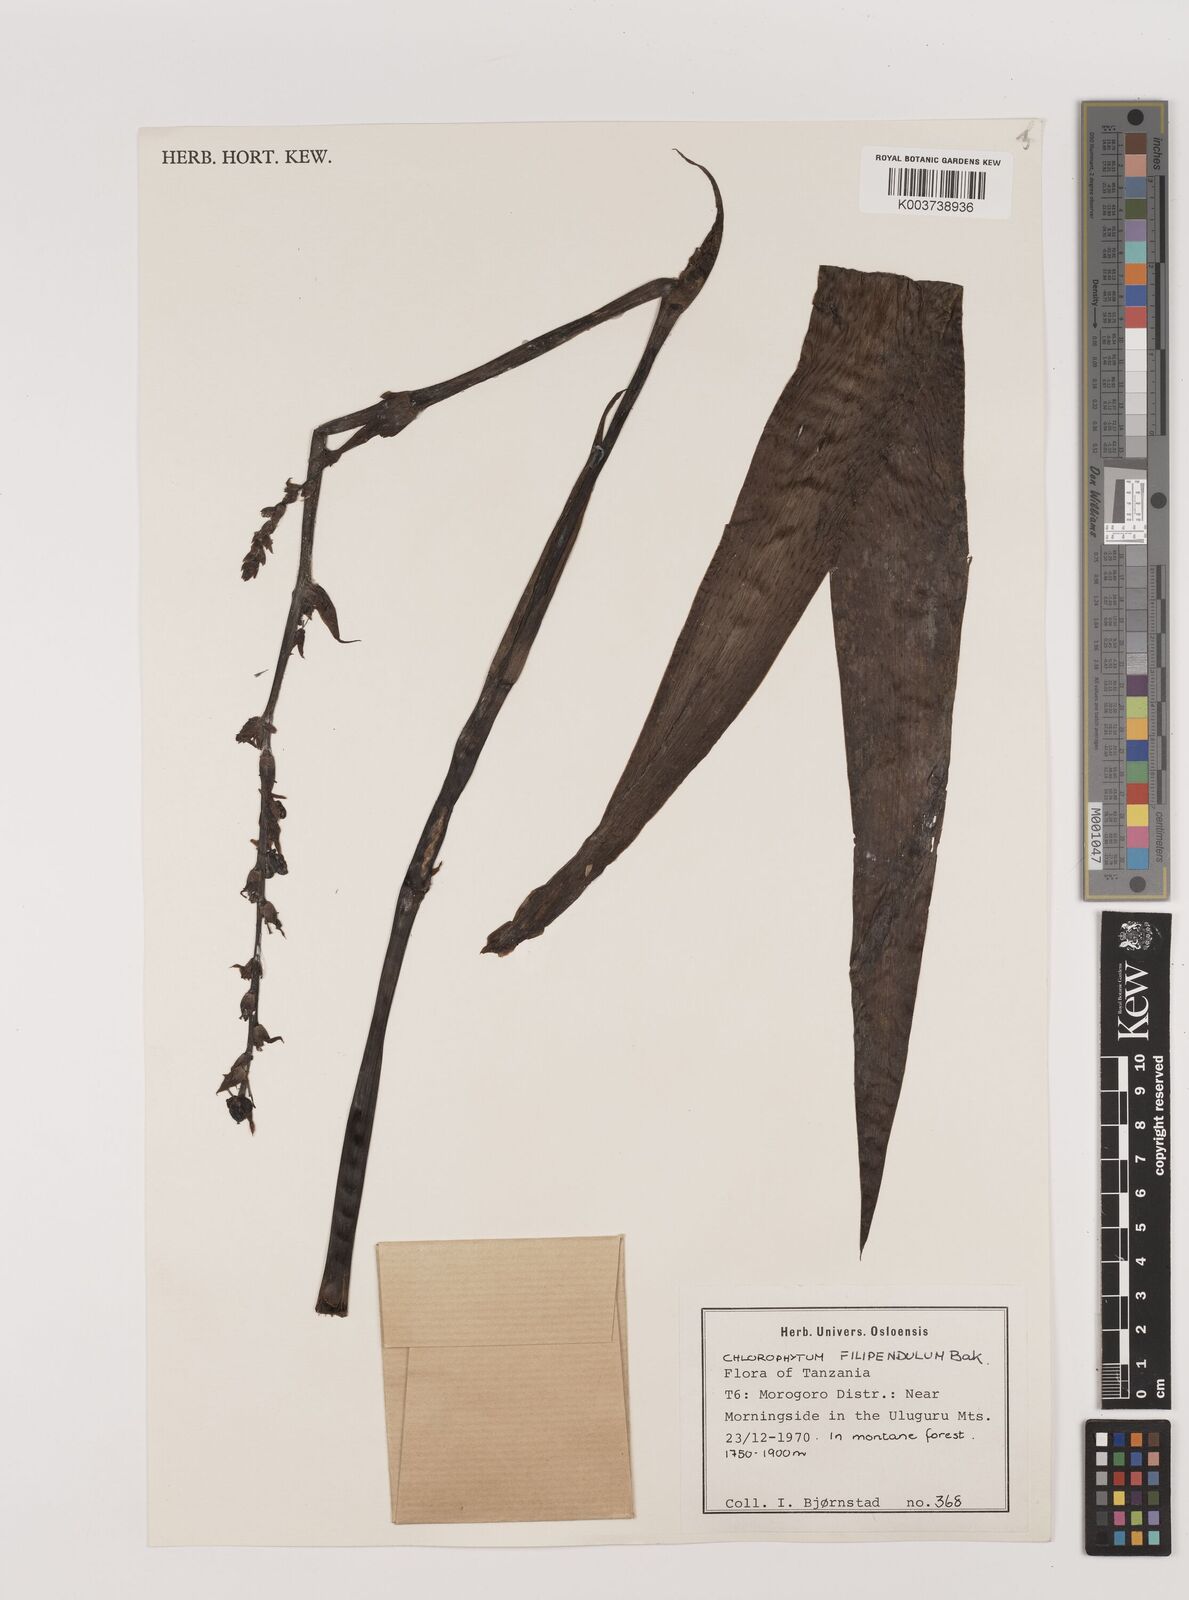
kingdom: Plantae
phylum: Tracheophyta
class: Liliopsida
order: Asparagales
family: Asparagaceae
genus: Chlorophytum
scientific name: Chlorophytum comosum
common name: Spider plant
